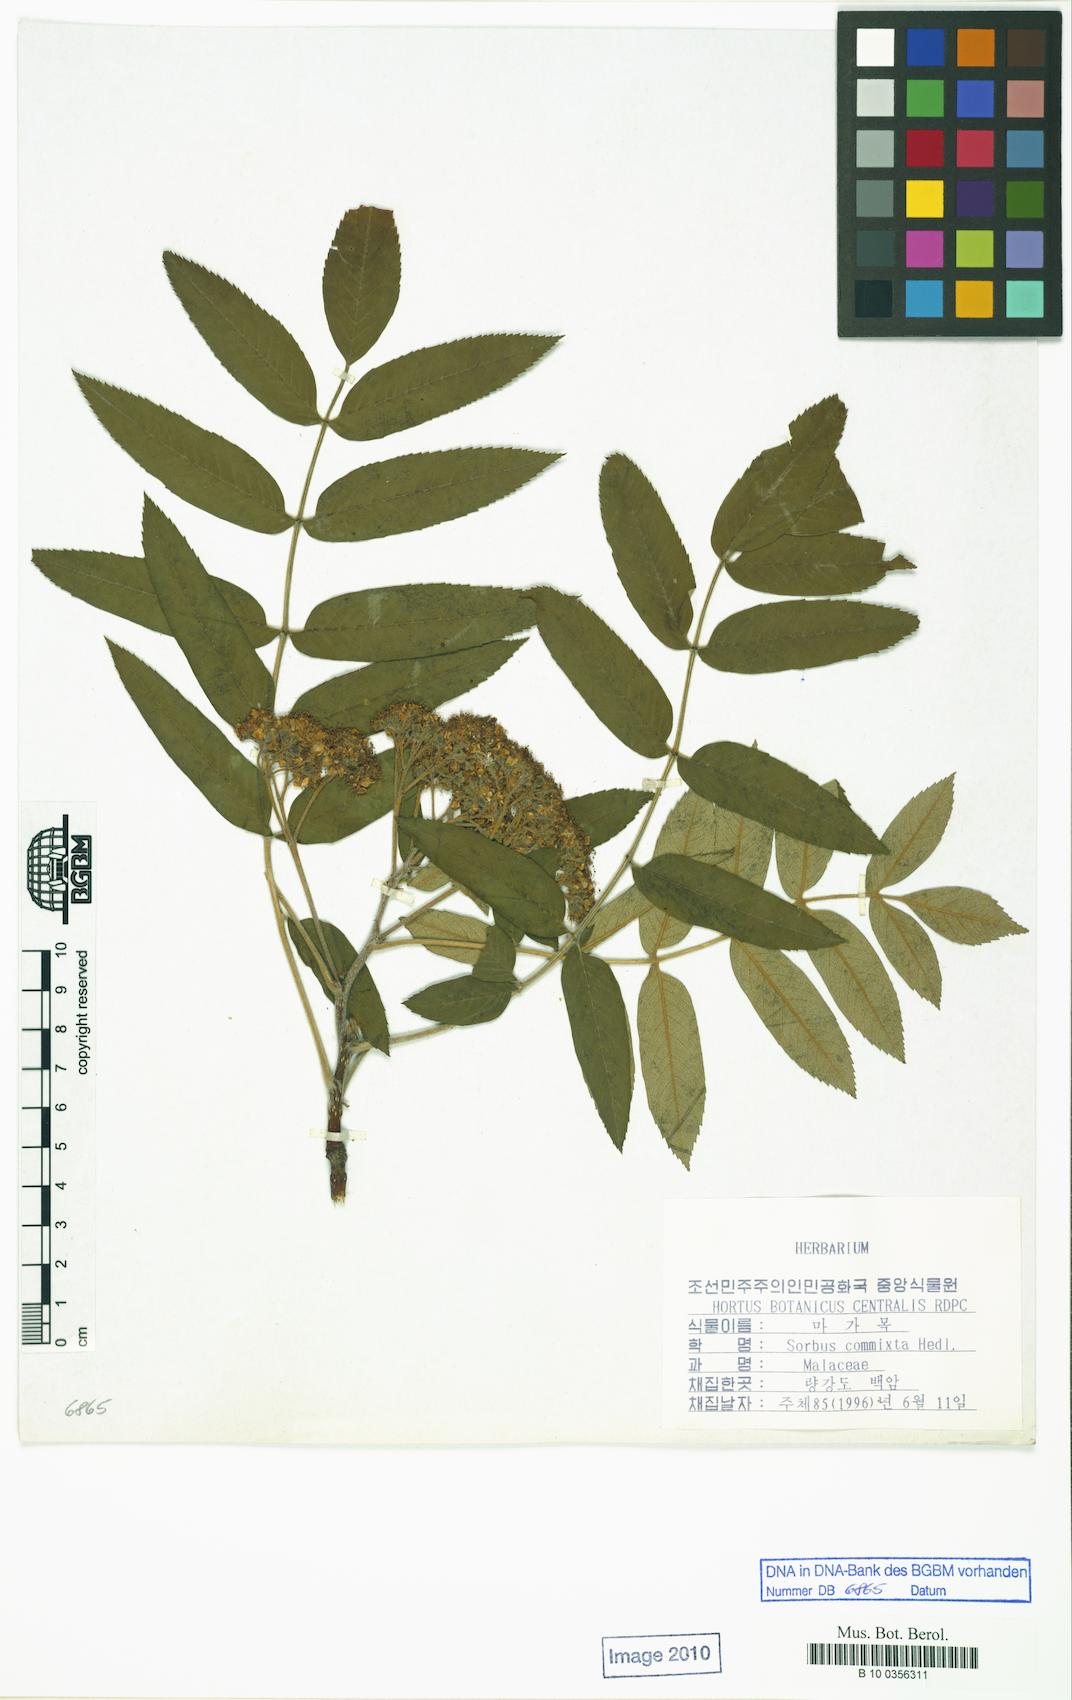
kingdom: Plantae
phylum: Tracheophyta
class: Magnoliopsida
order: Rosales
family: Rosaceae
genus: Sorbus
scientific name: Sorbus commixta
